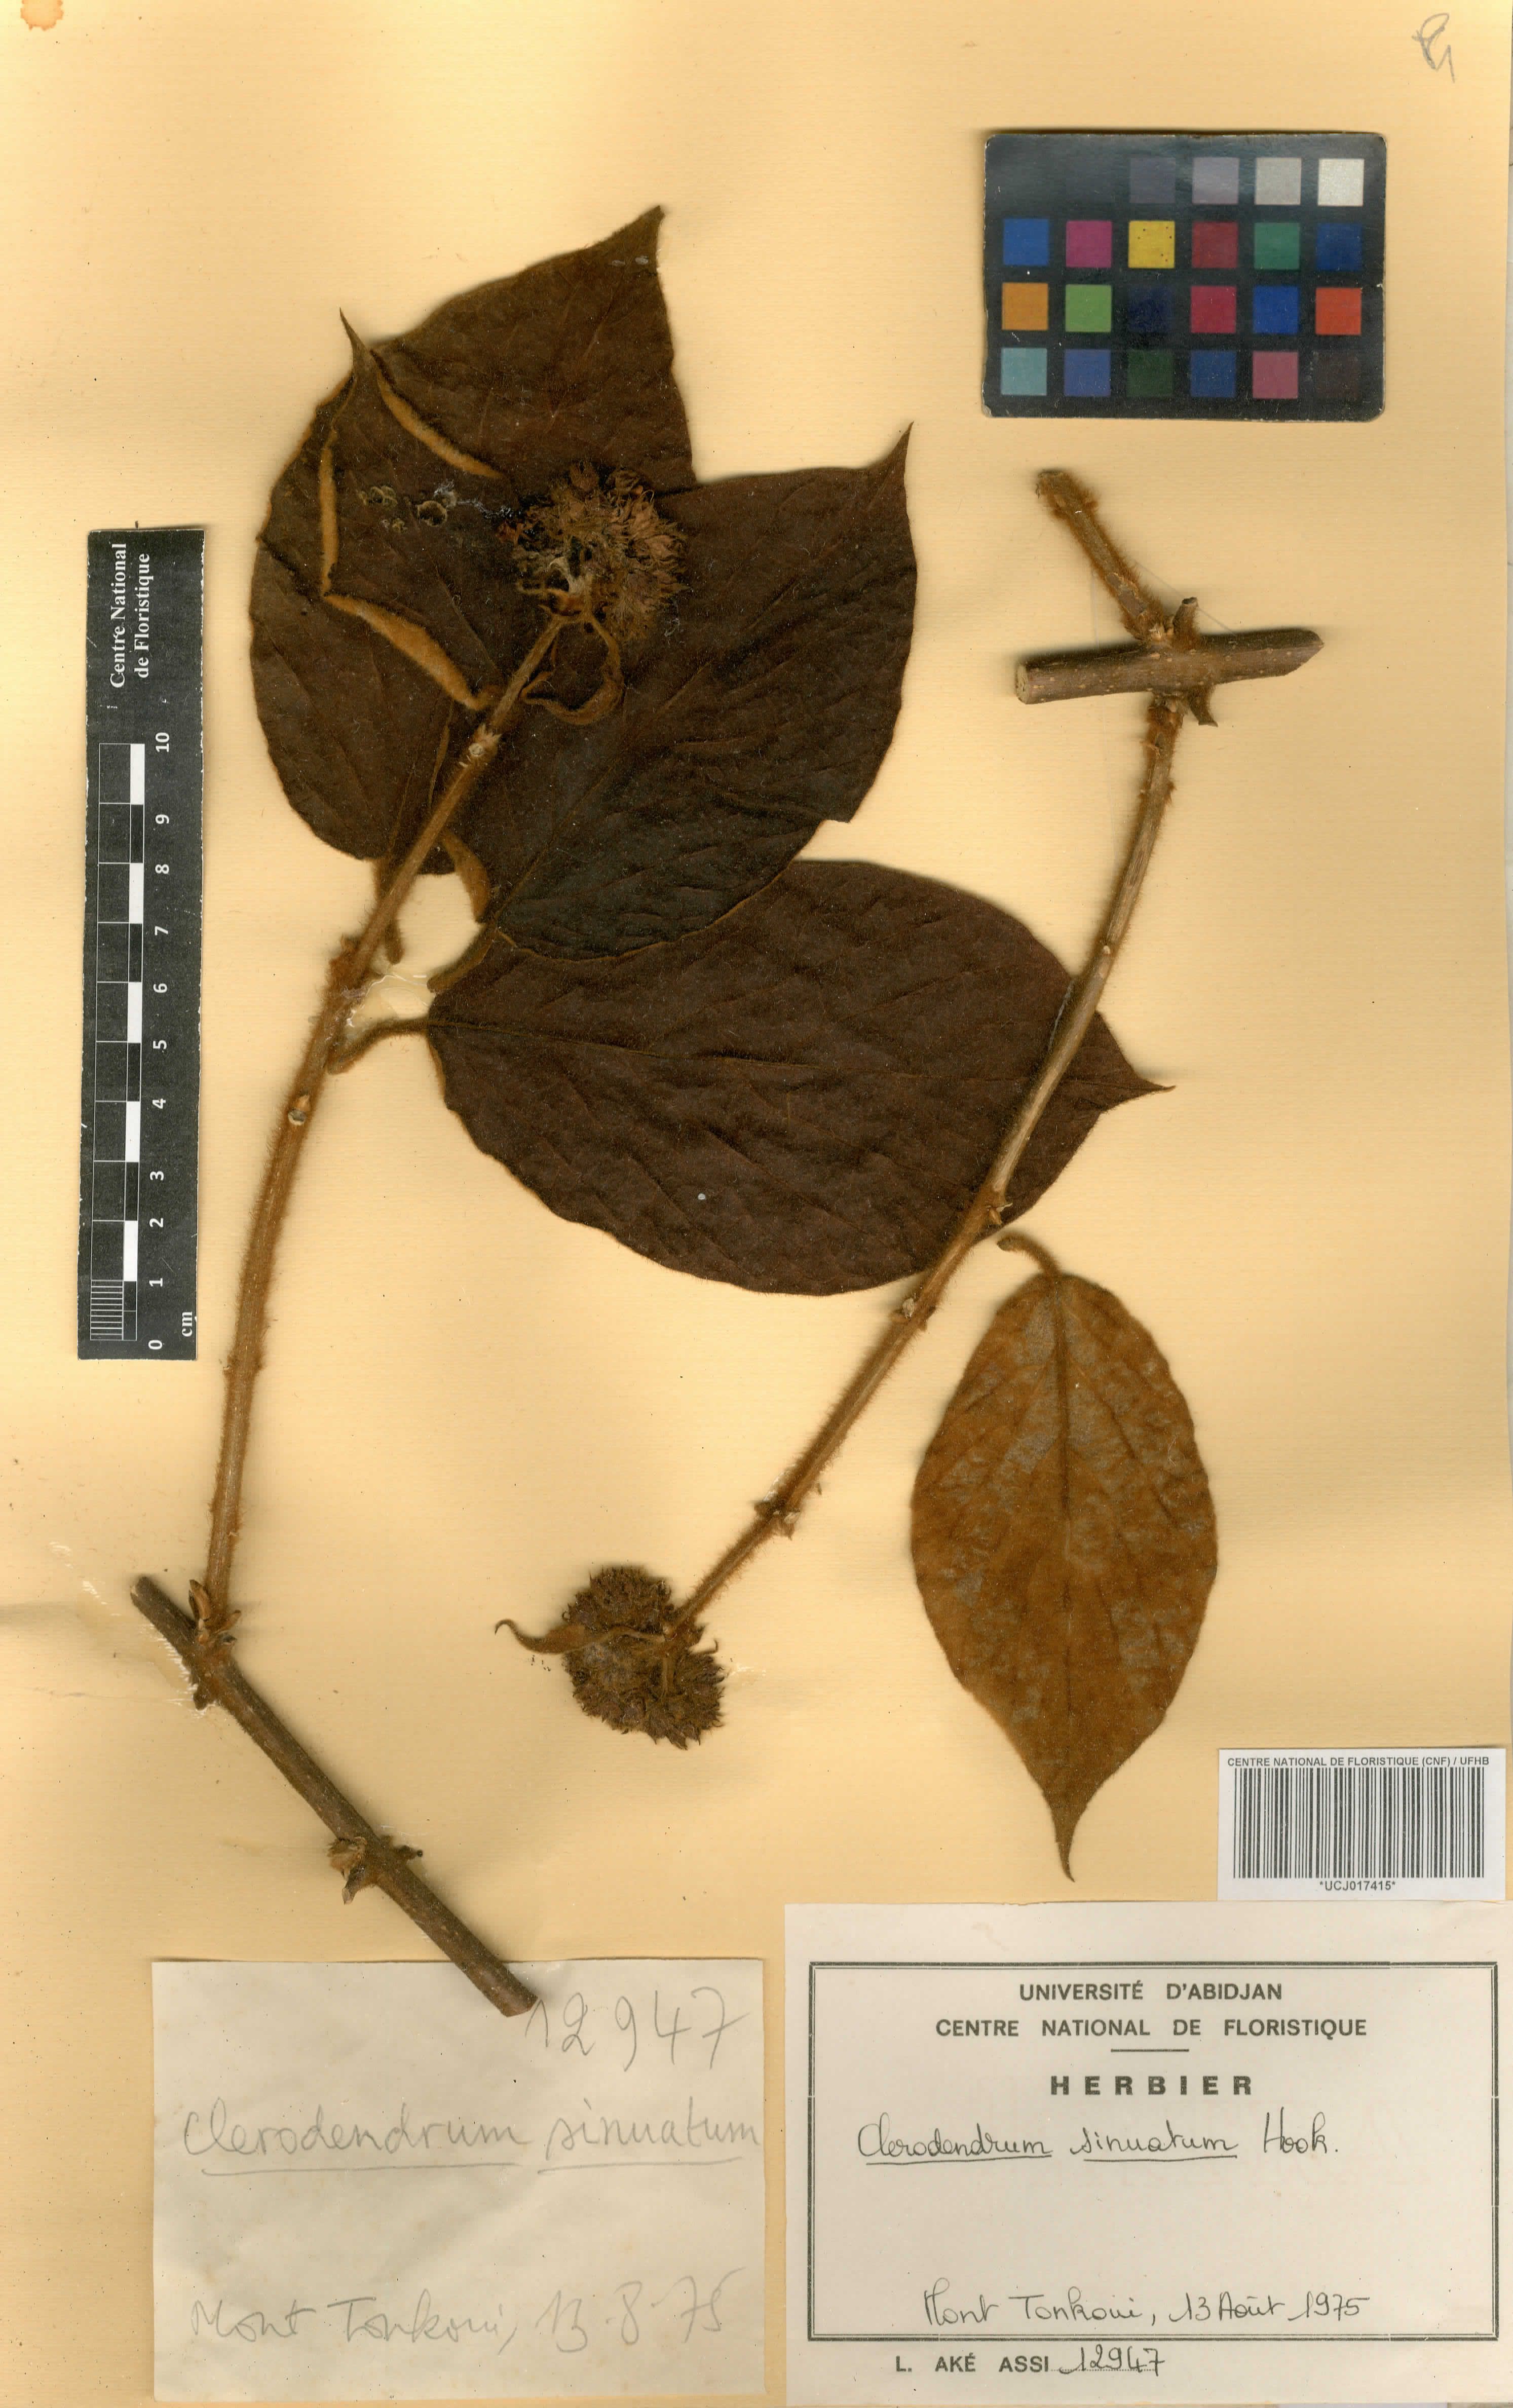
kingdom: Plantae
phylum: Tracheophyta
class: Magnoliopsida
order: Lamiales
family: Lamiaceae
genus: Clerodendrum
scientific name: Clerodendrum sinuatum
